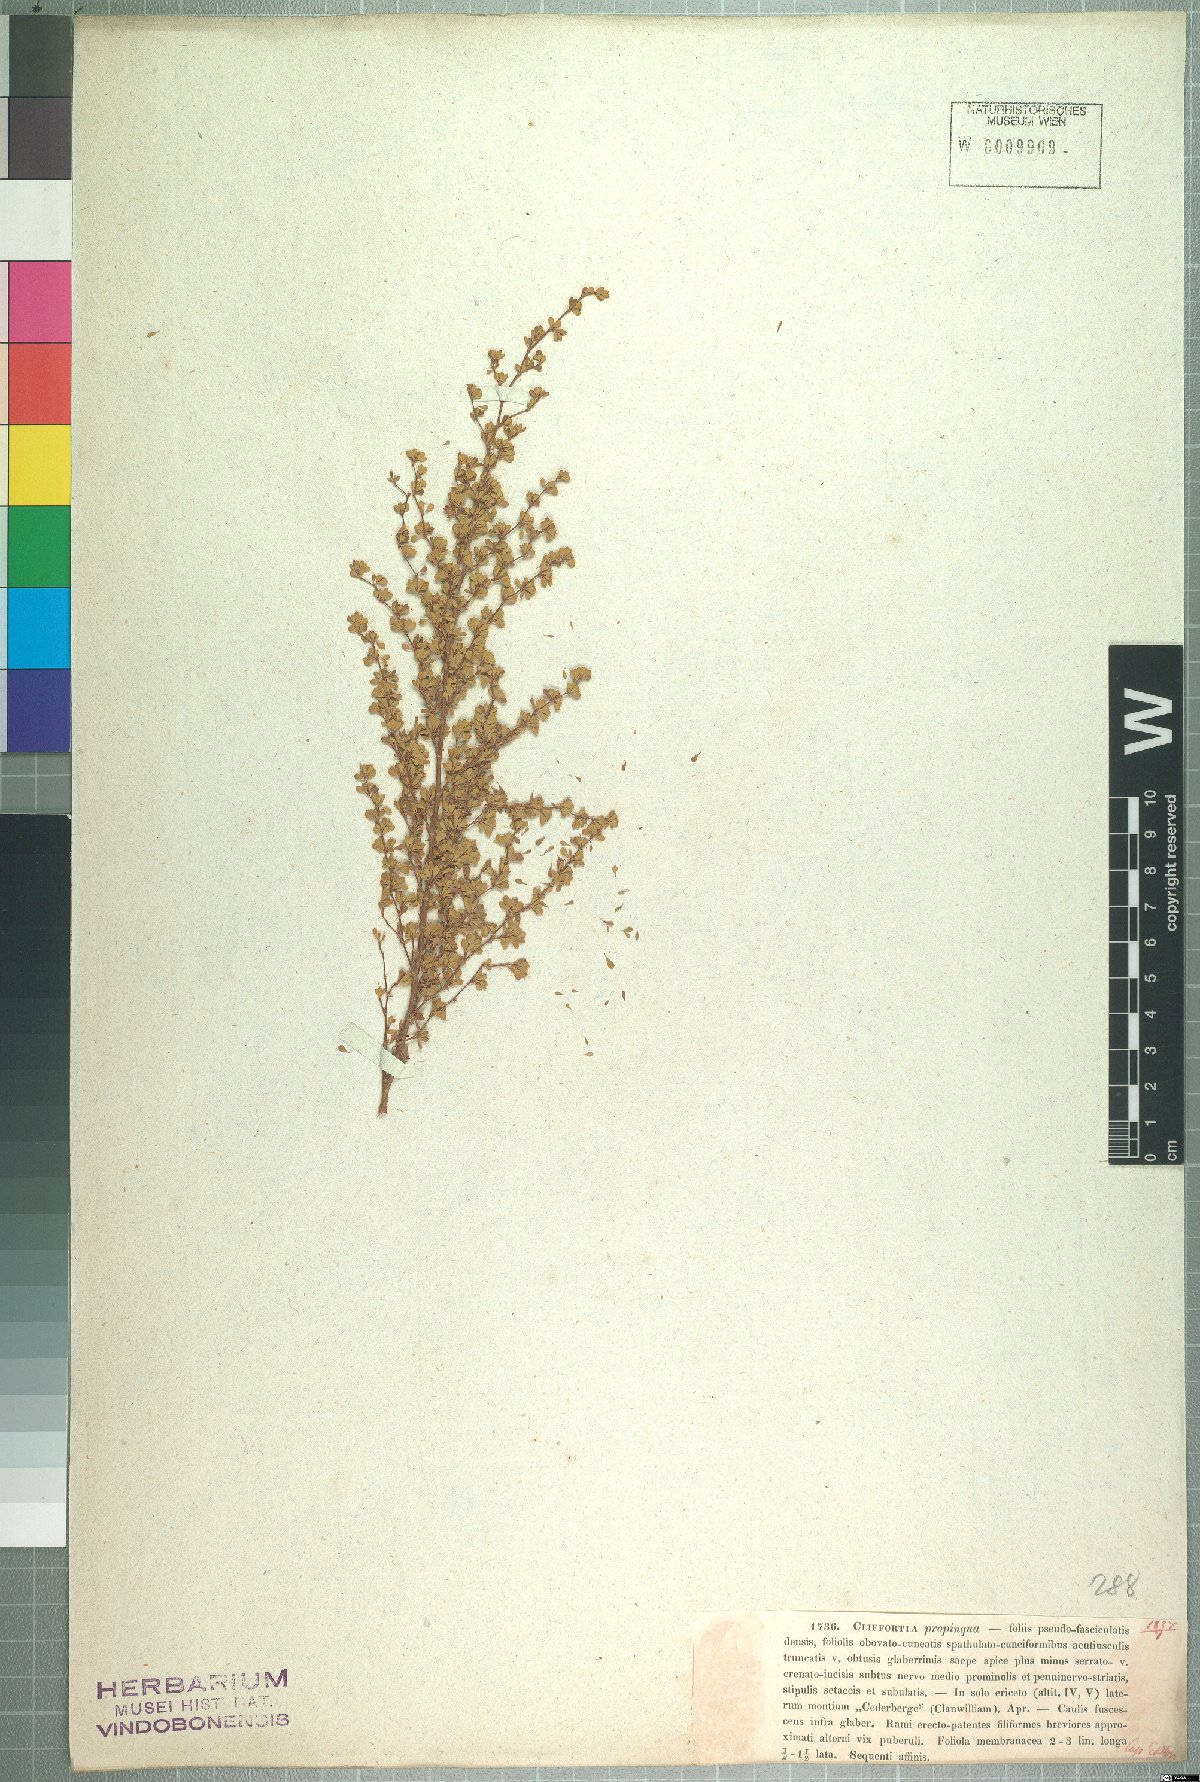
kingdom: Plantae
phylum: Tracheophyta
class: Magnoliopsida
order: Rosales
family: Rosaceae
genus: Cliffortia
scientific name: Cliffortia propinqua
